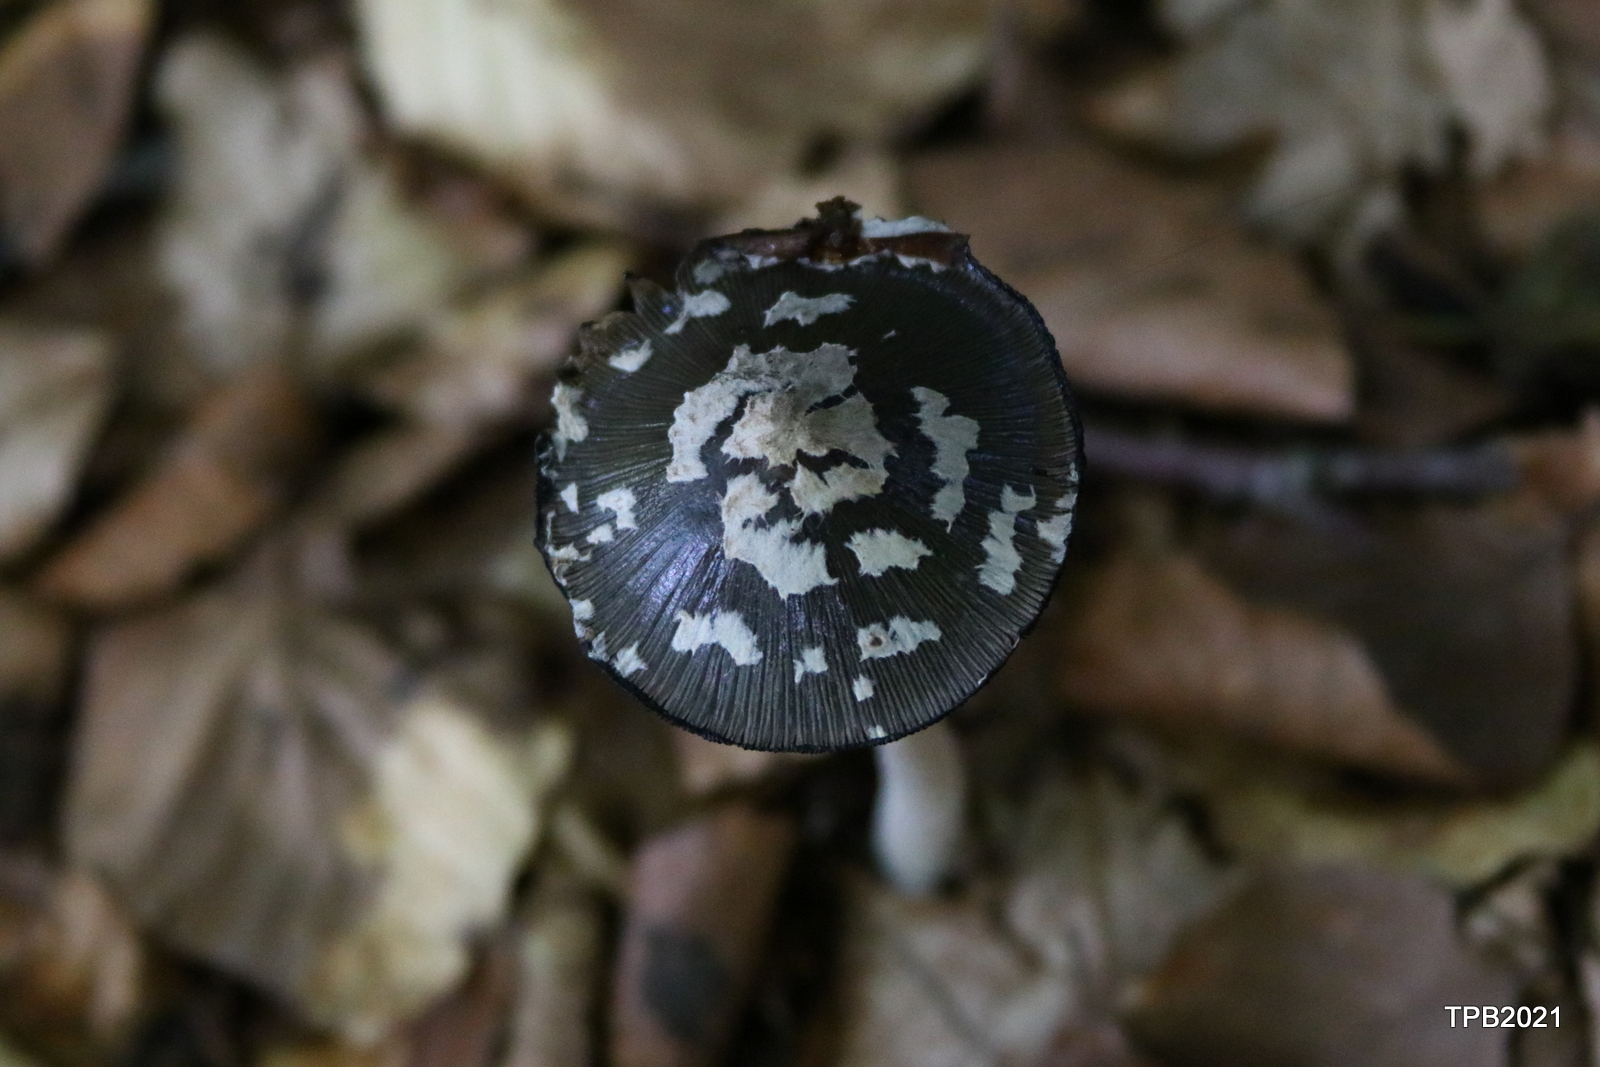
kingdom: Fungi
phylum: Basidiomycota
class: Agaricomycetes
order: Agaricales
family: Psathyrellaceae
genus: Coprinopsis
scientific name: Coprinopsis picacea
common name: skade-blækhat
